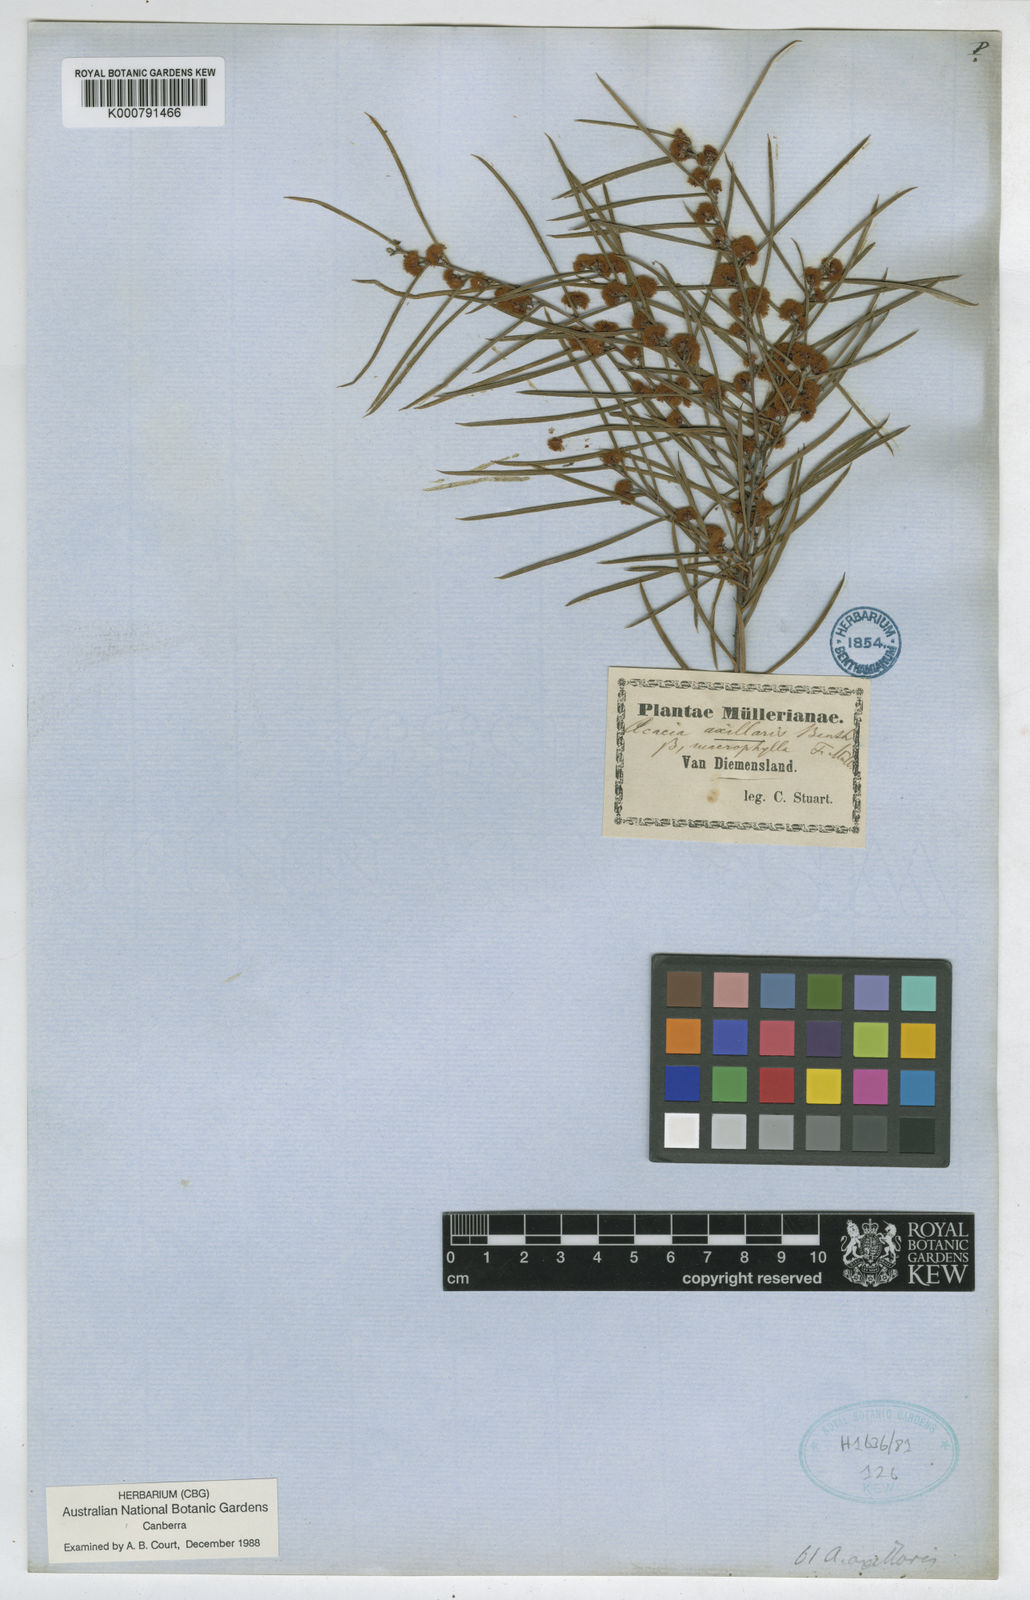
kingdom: Plantae
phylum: Tracheophyta
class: Magnoliopsida
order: Fabales
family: Fabaceae
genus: Acacia
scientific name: Acacia axillaris
